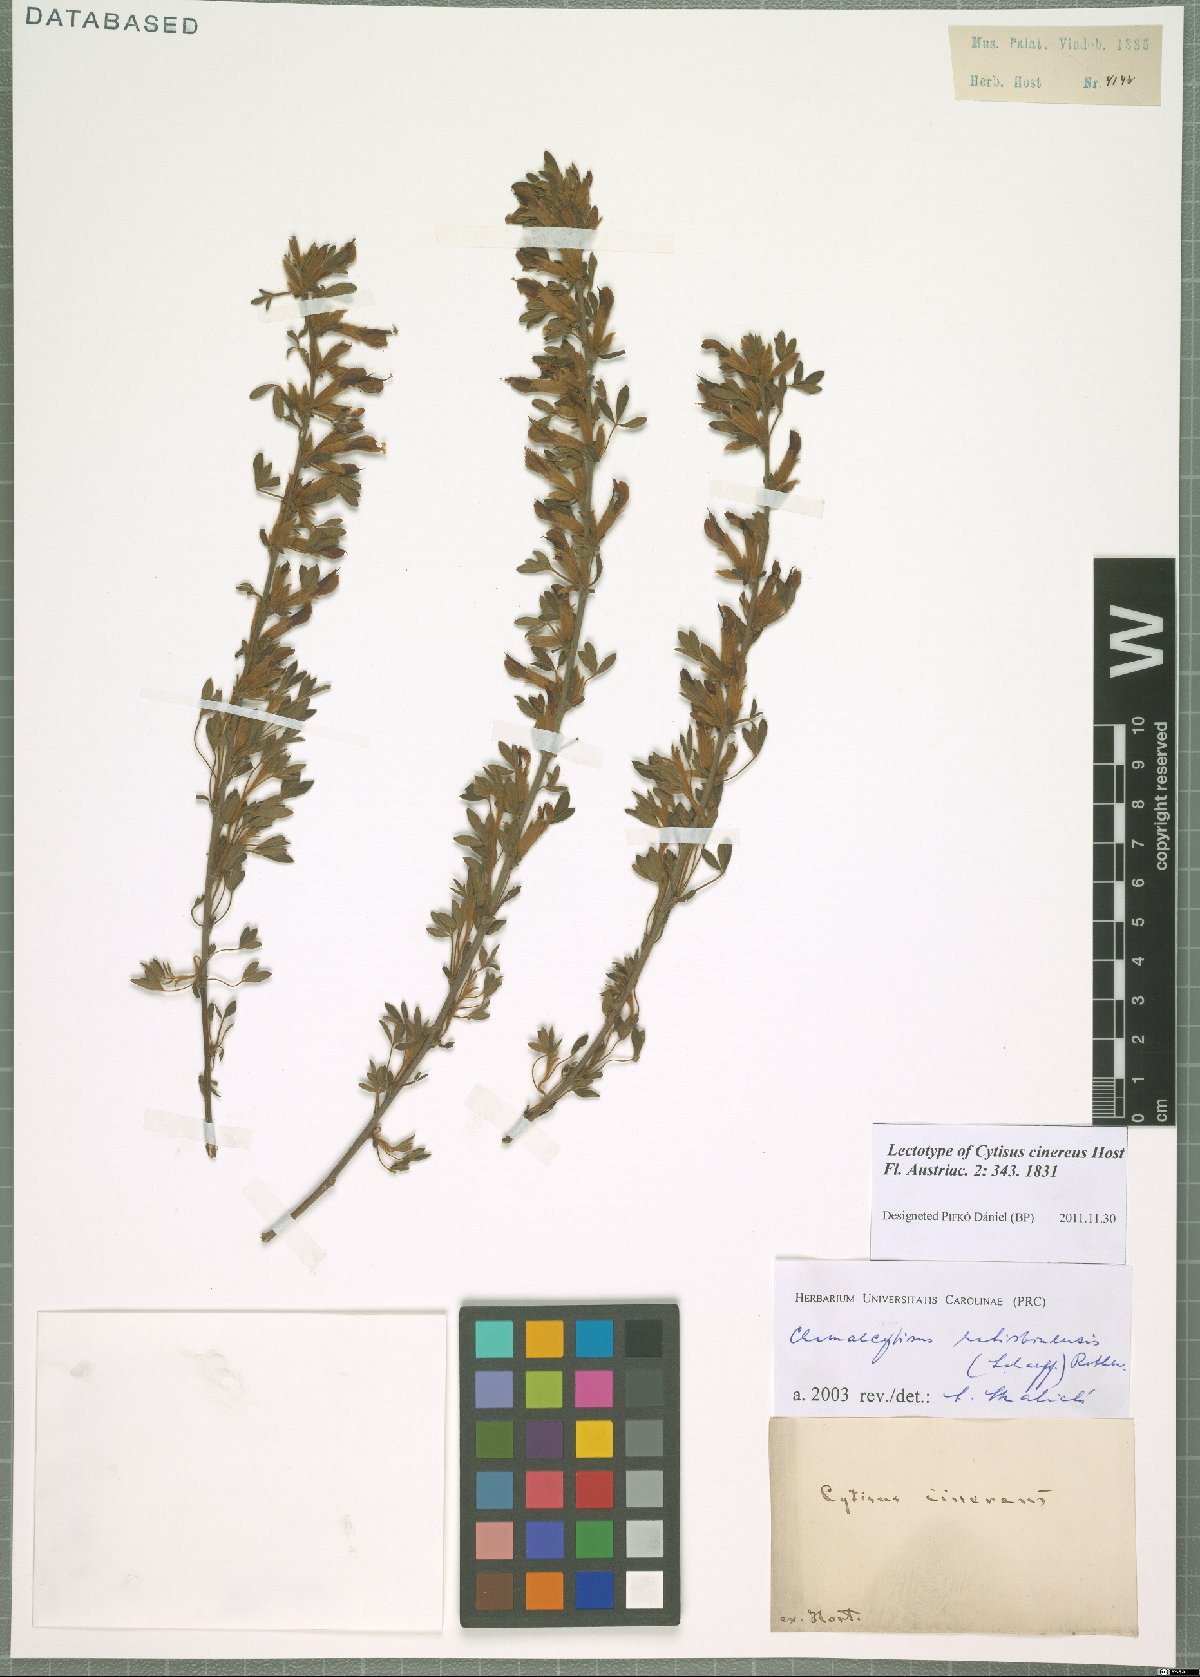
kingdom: Plantae
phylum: Tracheophyta
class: Magnoliopsida
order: Fabales
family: Fabaceae
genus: Chamaecytisus
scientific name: Chamaecytisus ratisbonensis
